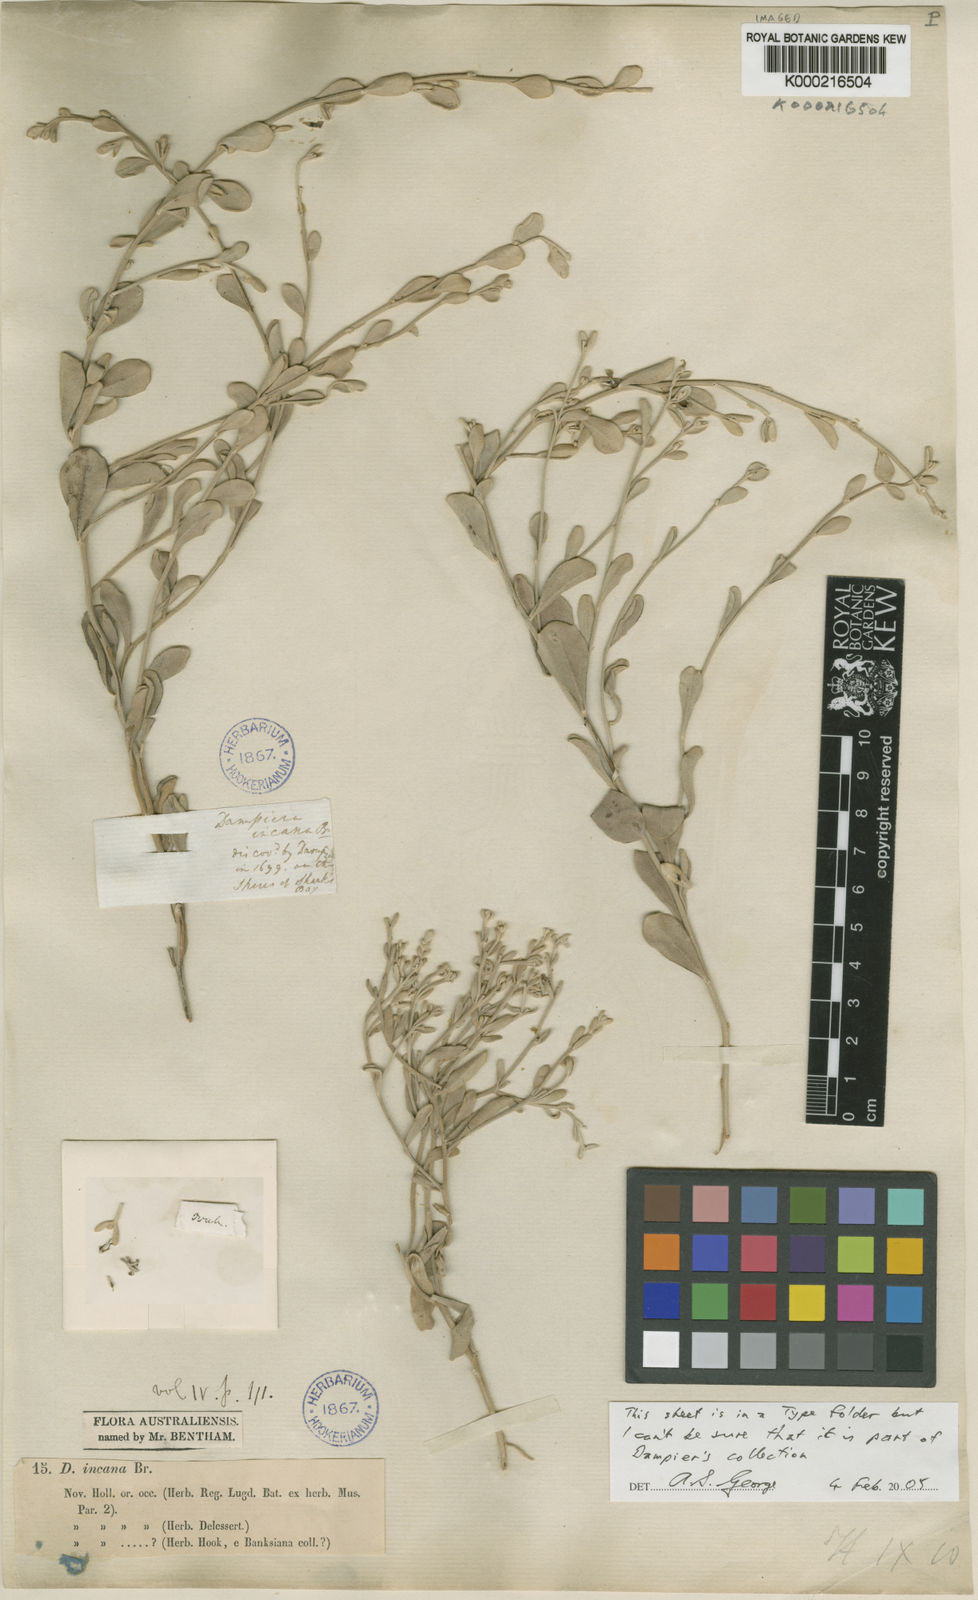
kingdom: Plantae
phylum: Tracheophyta
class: Magnoliopsida
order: Asterales
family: Goodeniaceae
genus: Dampiera
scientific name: Dampiera incana
